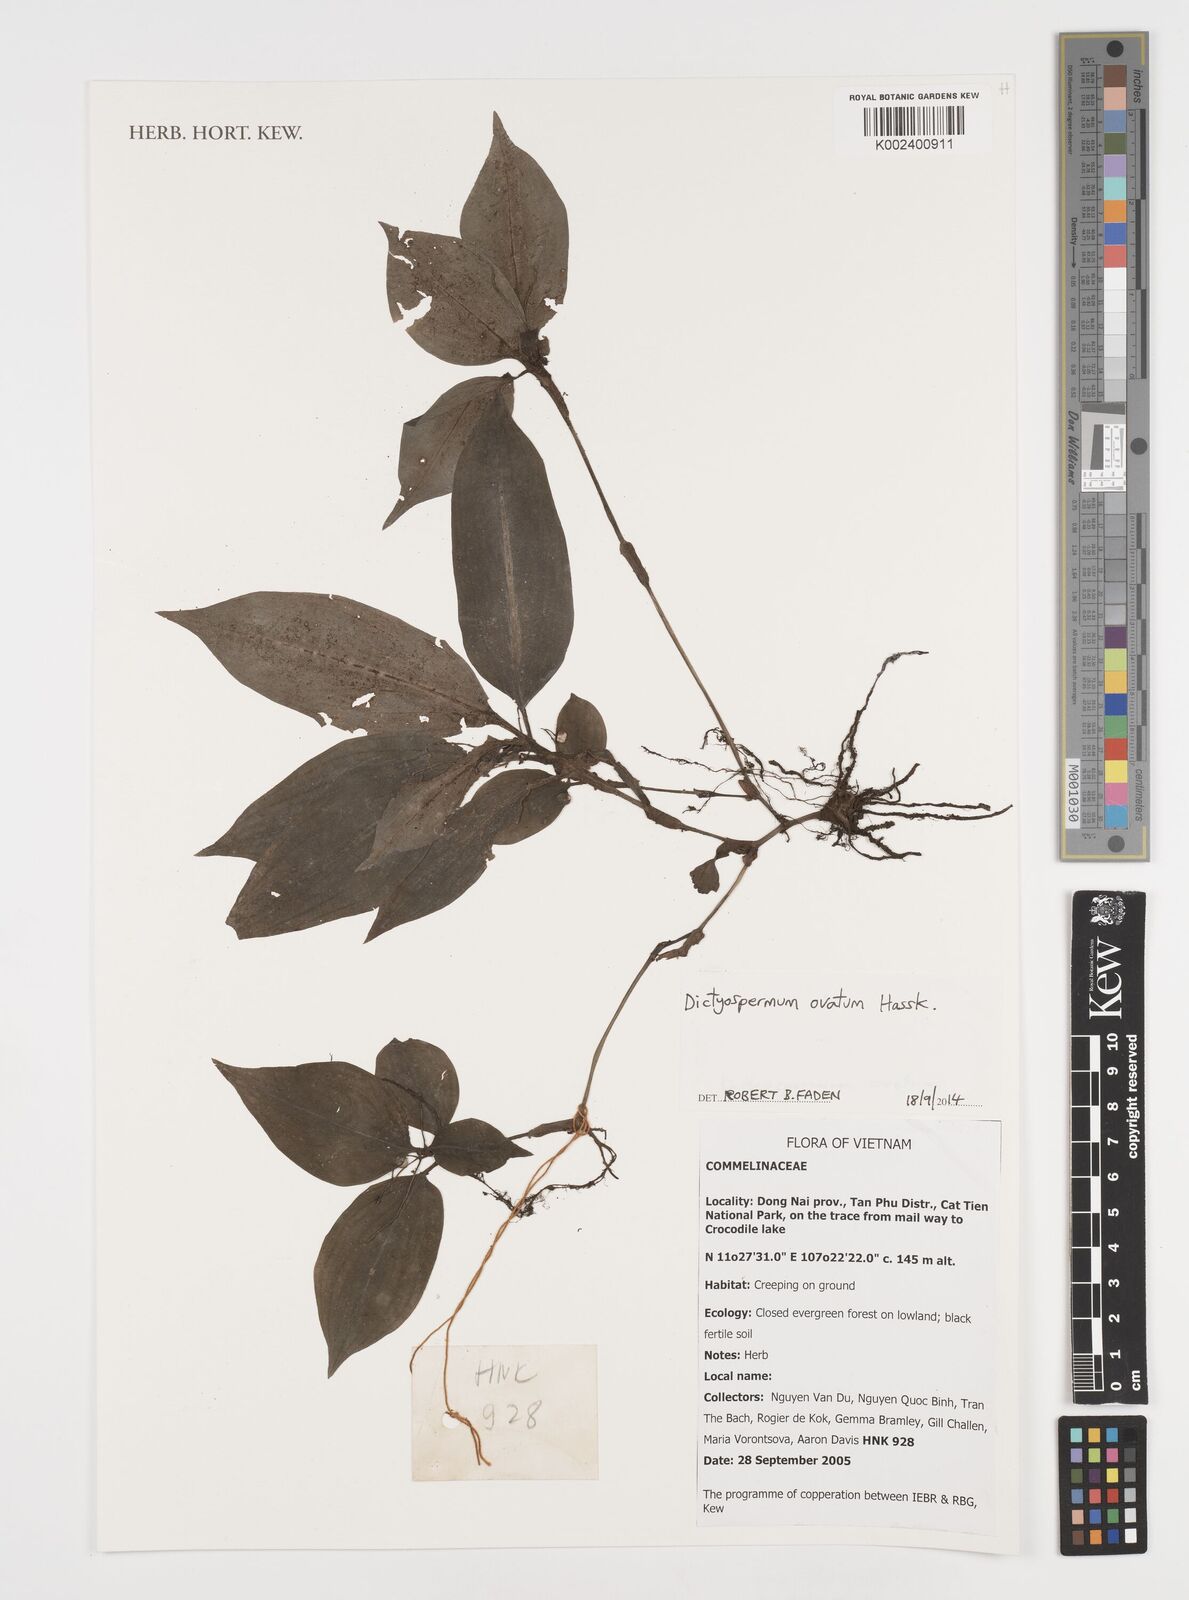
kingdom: Plantae
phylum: Tracheophyta
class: Liliopsida
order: Commelinales
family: Commelinaceae
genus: Dictyospermum
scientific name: Dictyospermum ovatum
